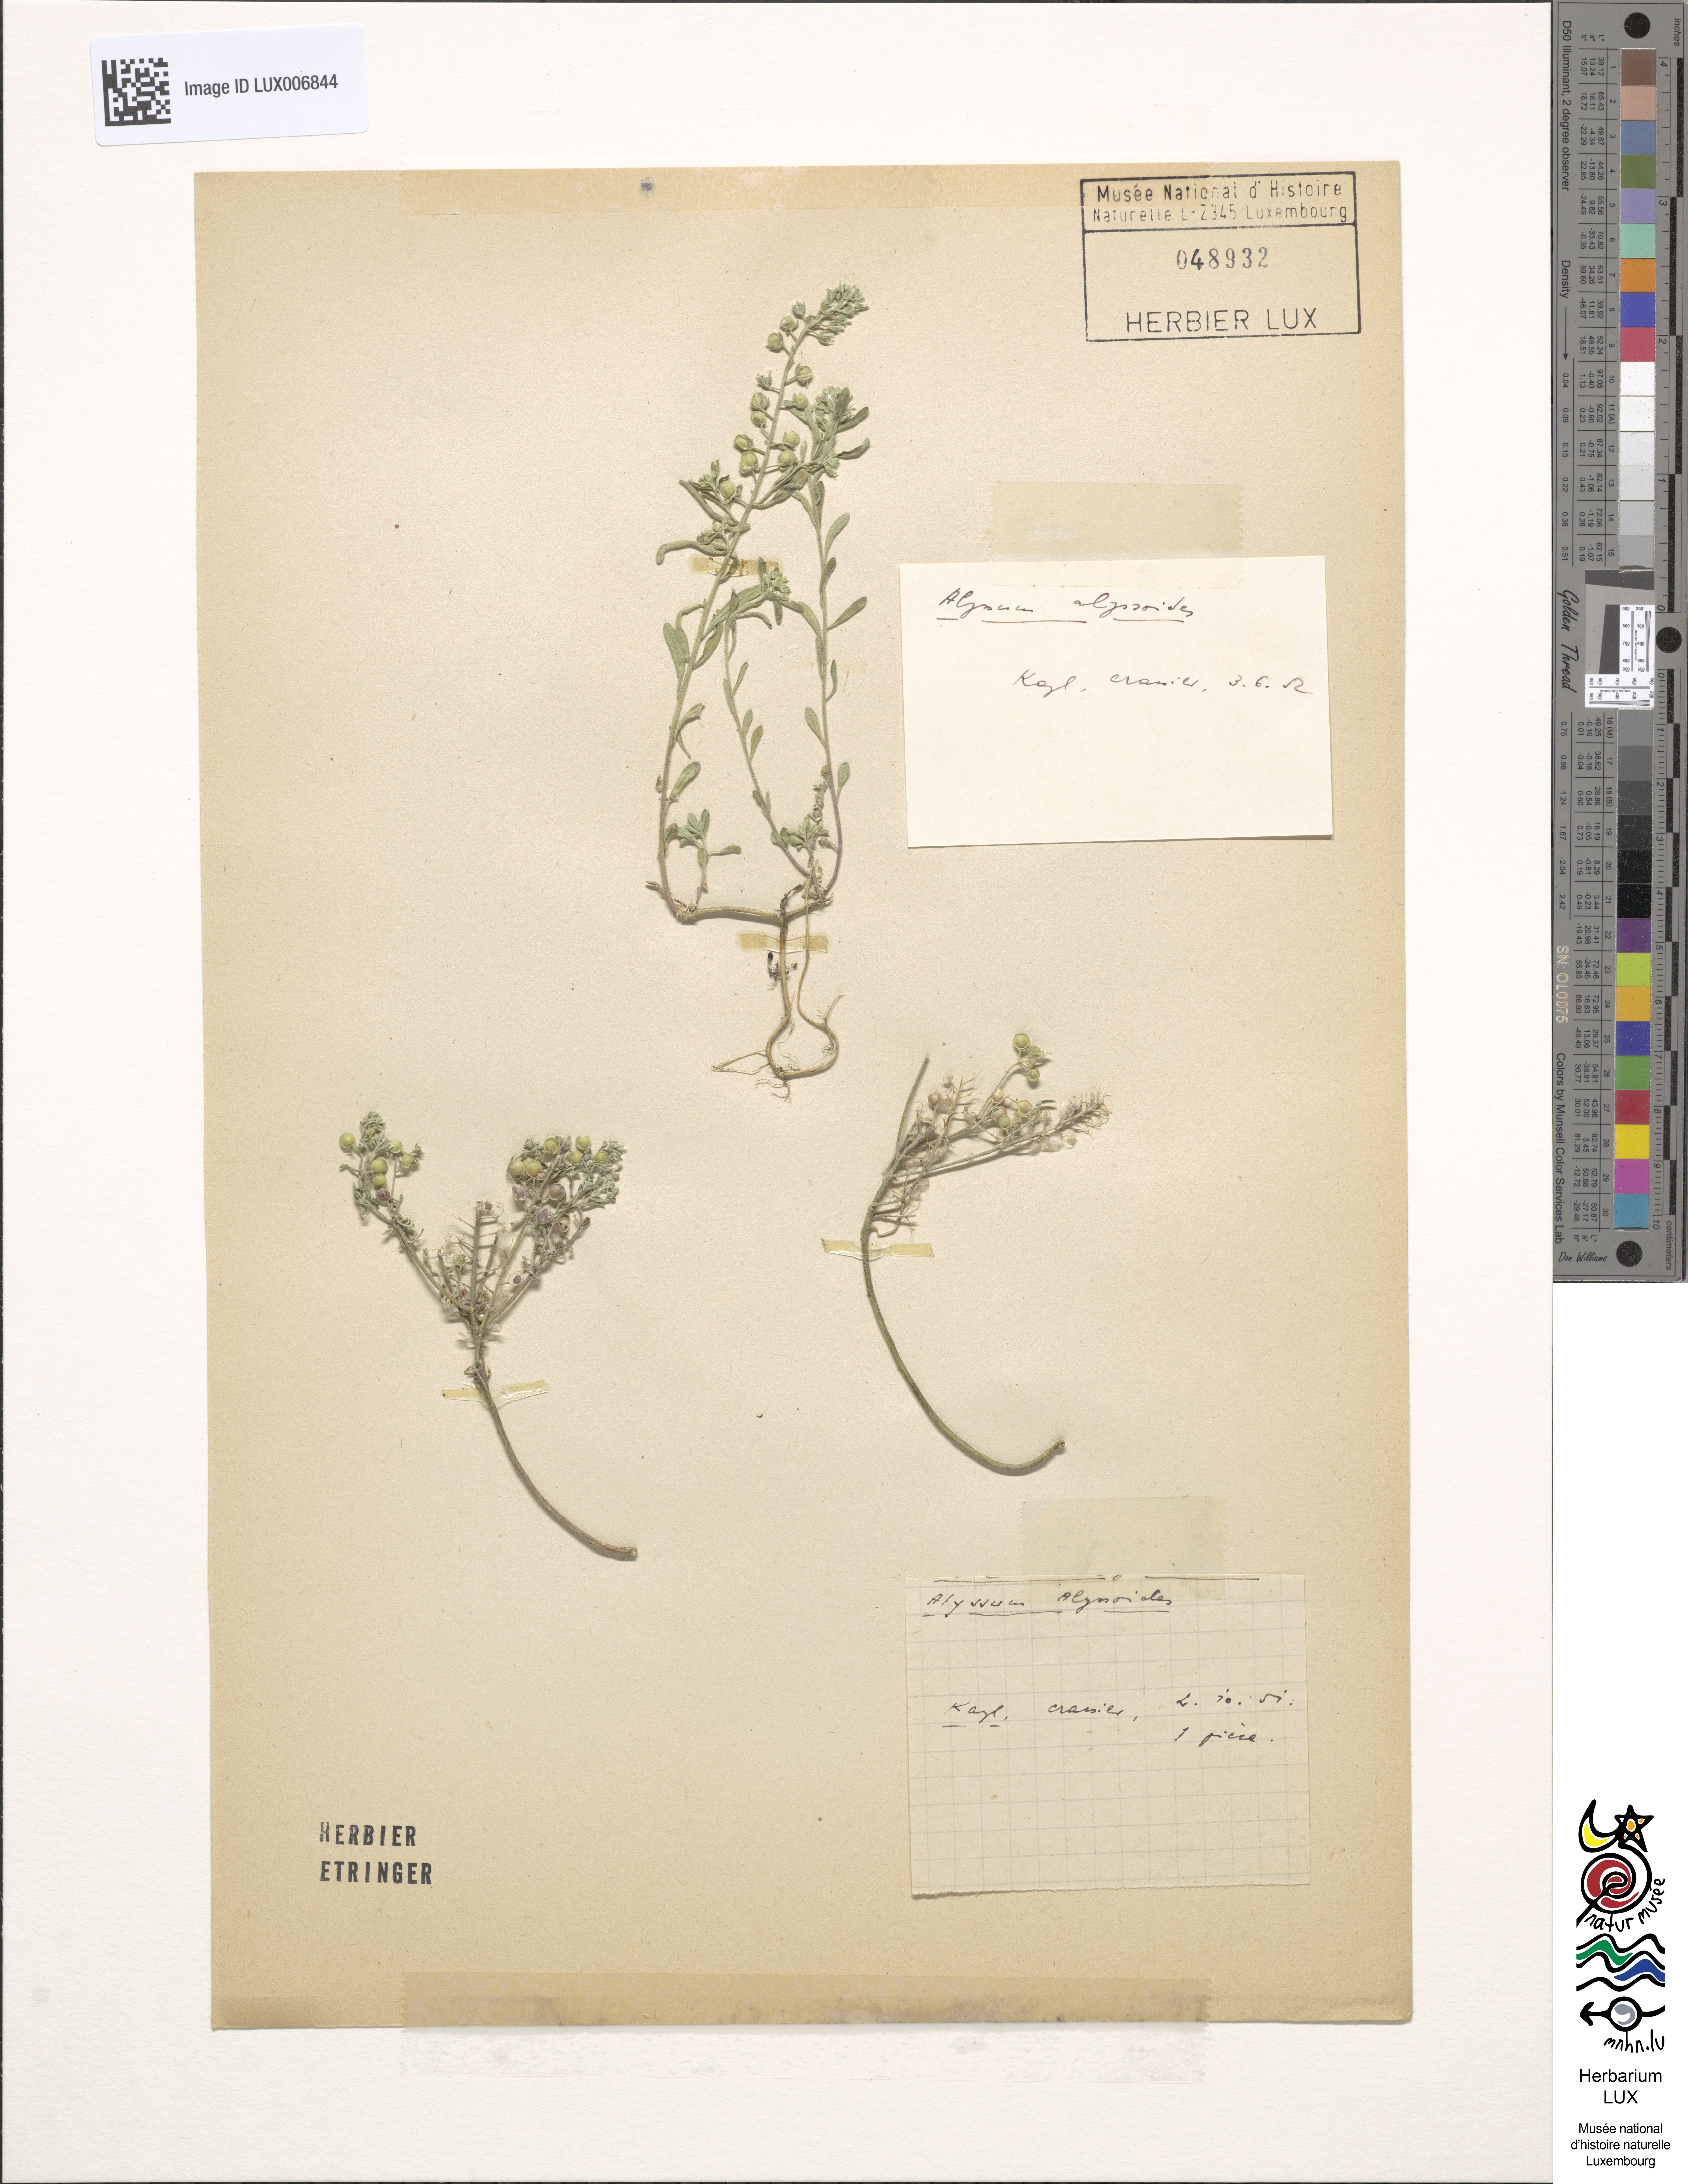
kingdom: Plantae
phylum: Tracheophyta
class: Magnoliopsida
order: Brassicales
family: Brassicaceae
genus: Alyssum
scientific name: Alyssum alyssoides
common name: Small alison
